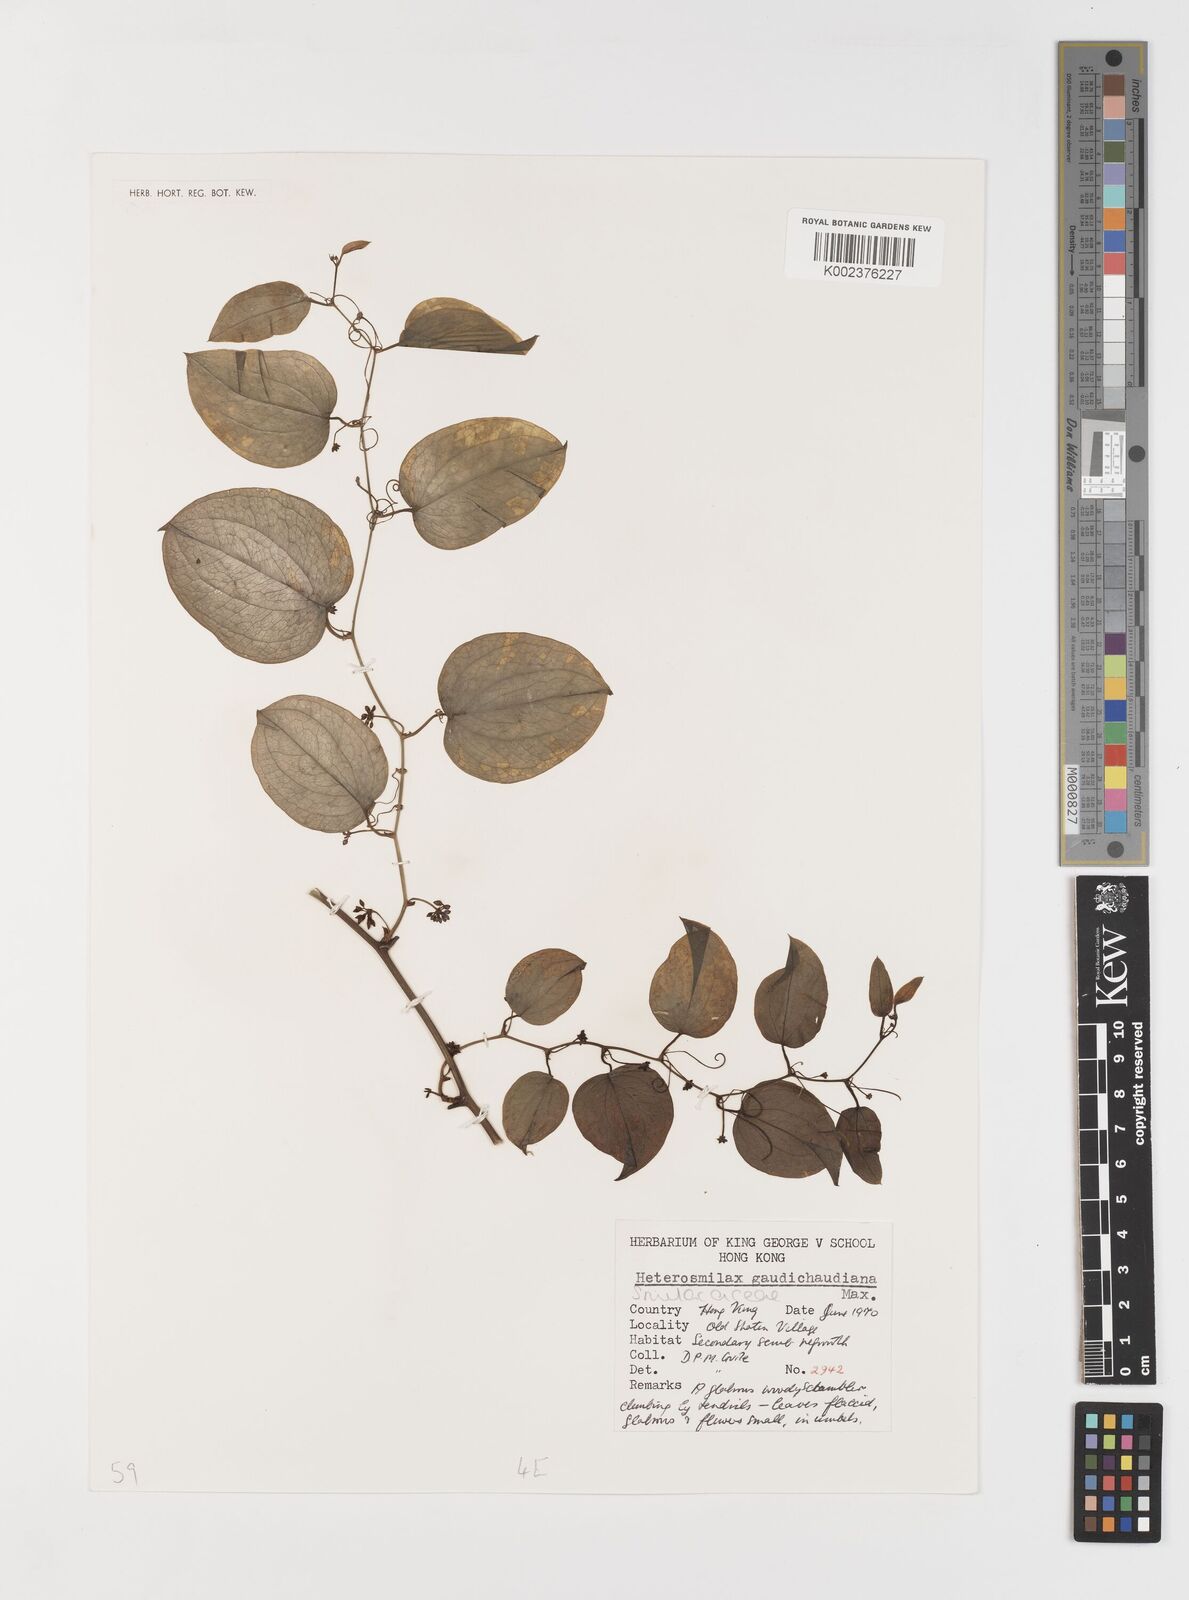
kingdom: Plantae
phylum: Tracheophyta
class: Liliopsida
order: Liliales
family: Smilacaceae
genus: Smilax
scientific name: Smilax gaudichaudiana
